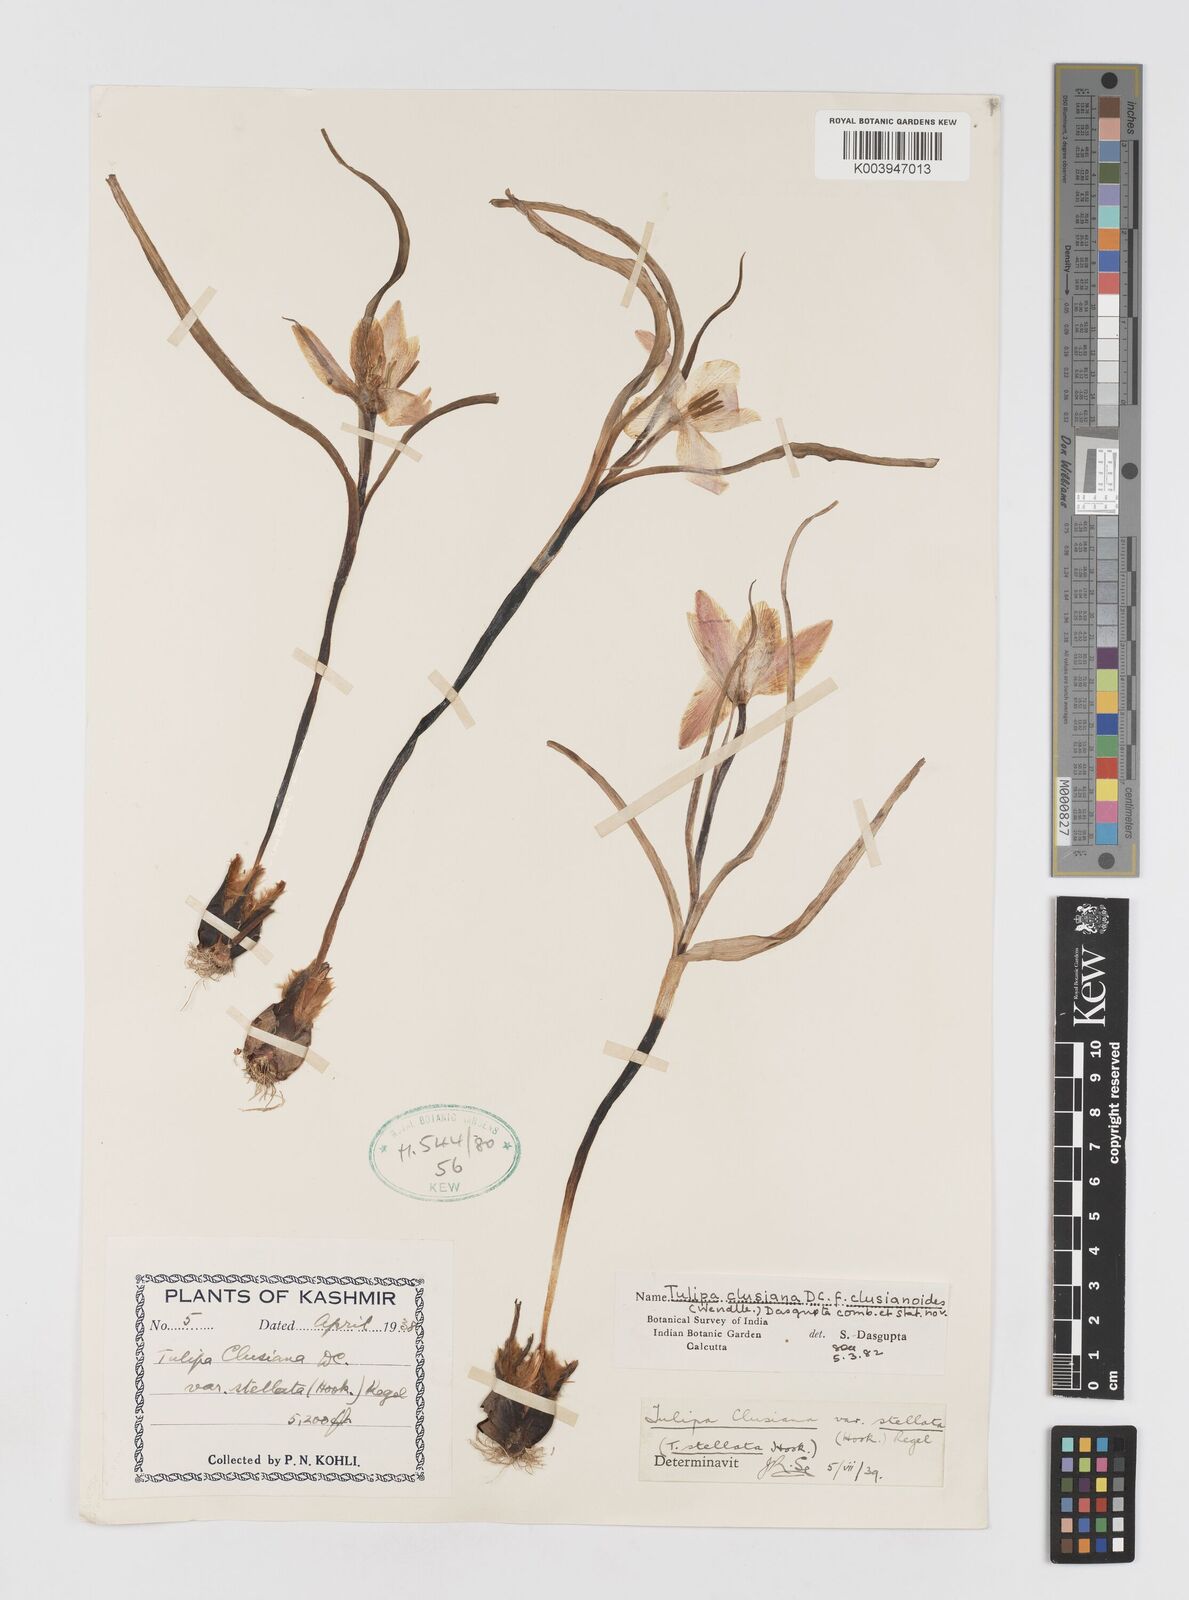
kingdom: Plantae
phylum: Tracheophyta
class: Liliopsida
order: Liliales
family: Liliaceae
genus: Tulipa
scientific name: Tulipa clusiana
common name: Lady tulip
